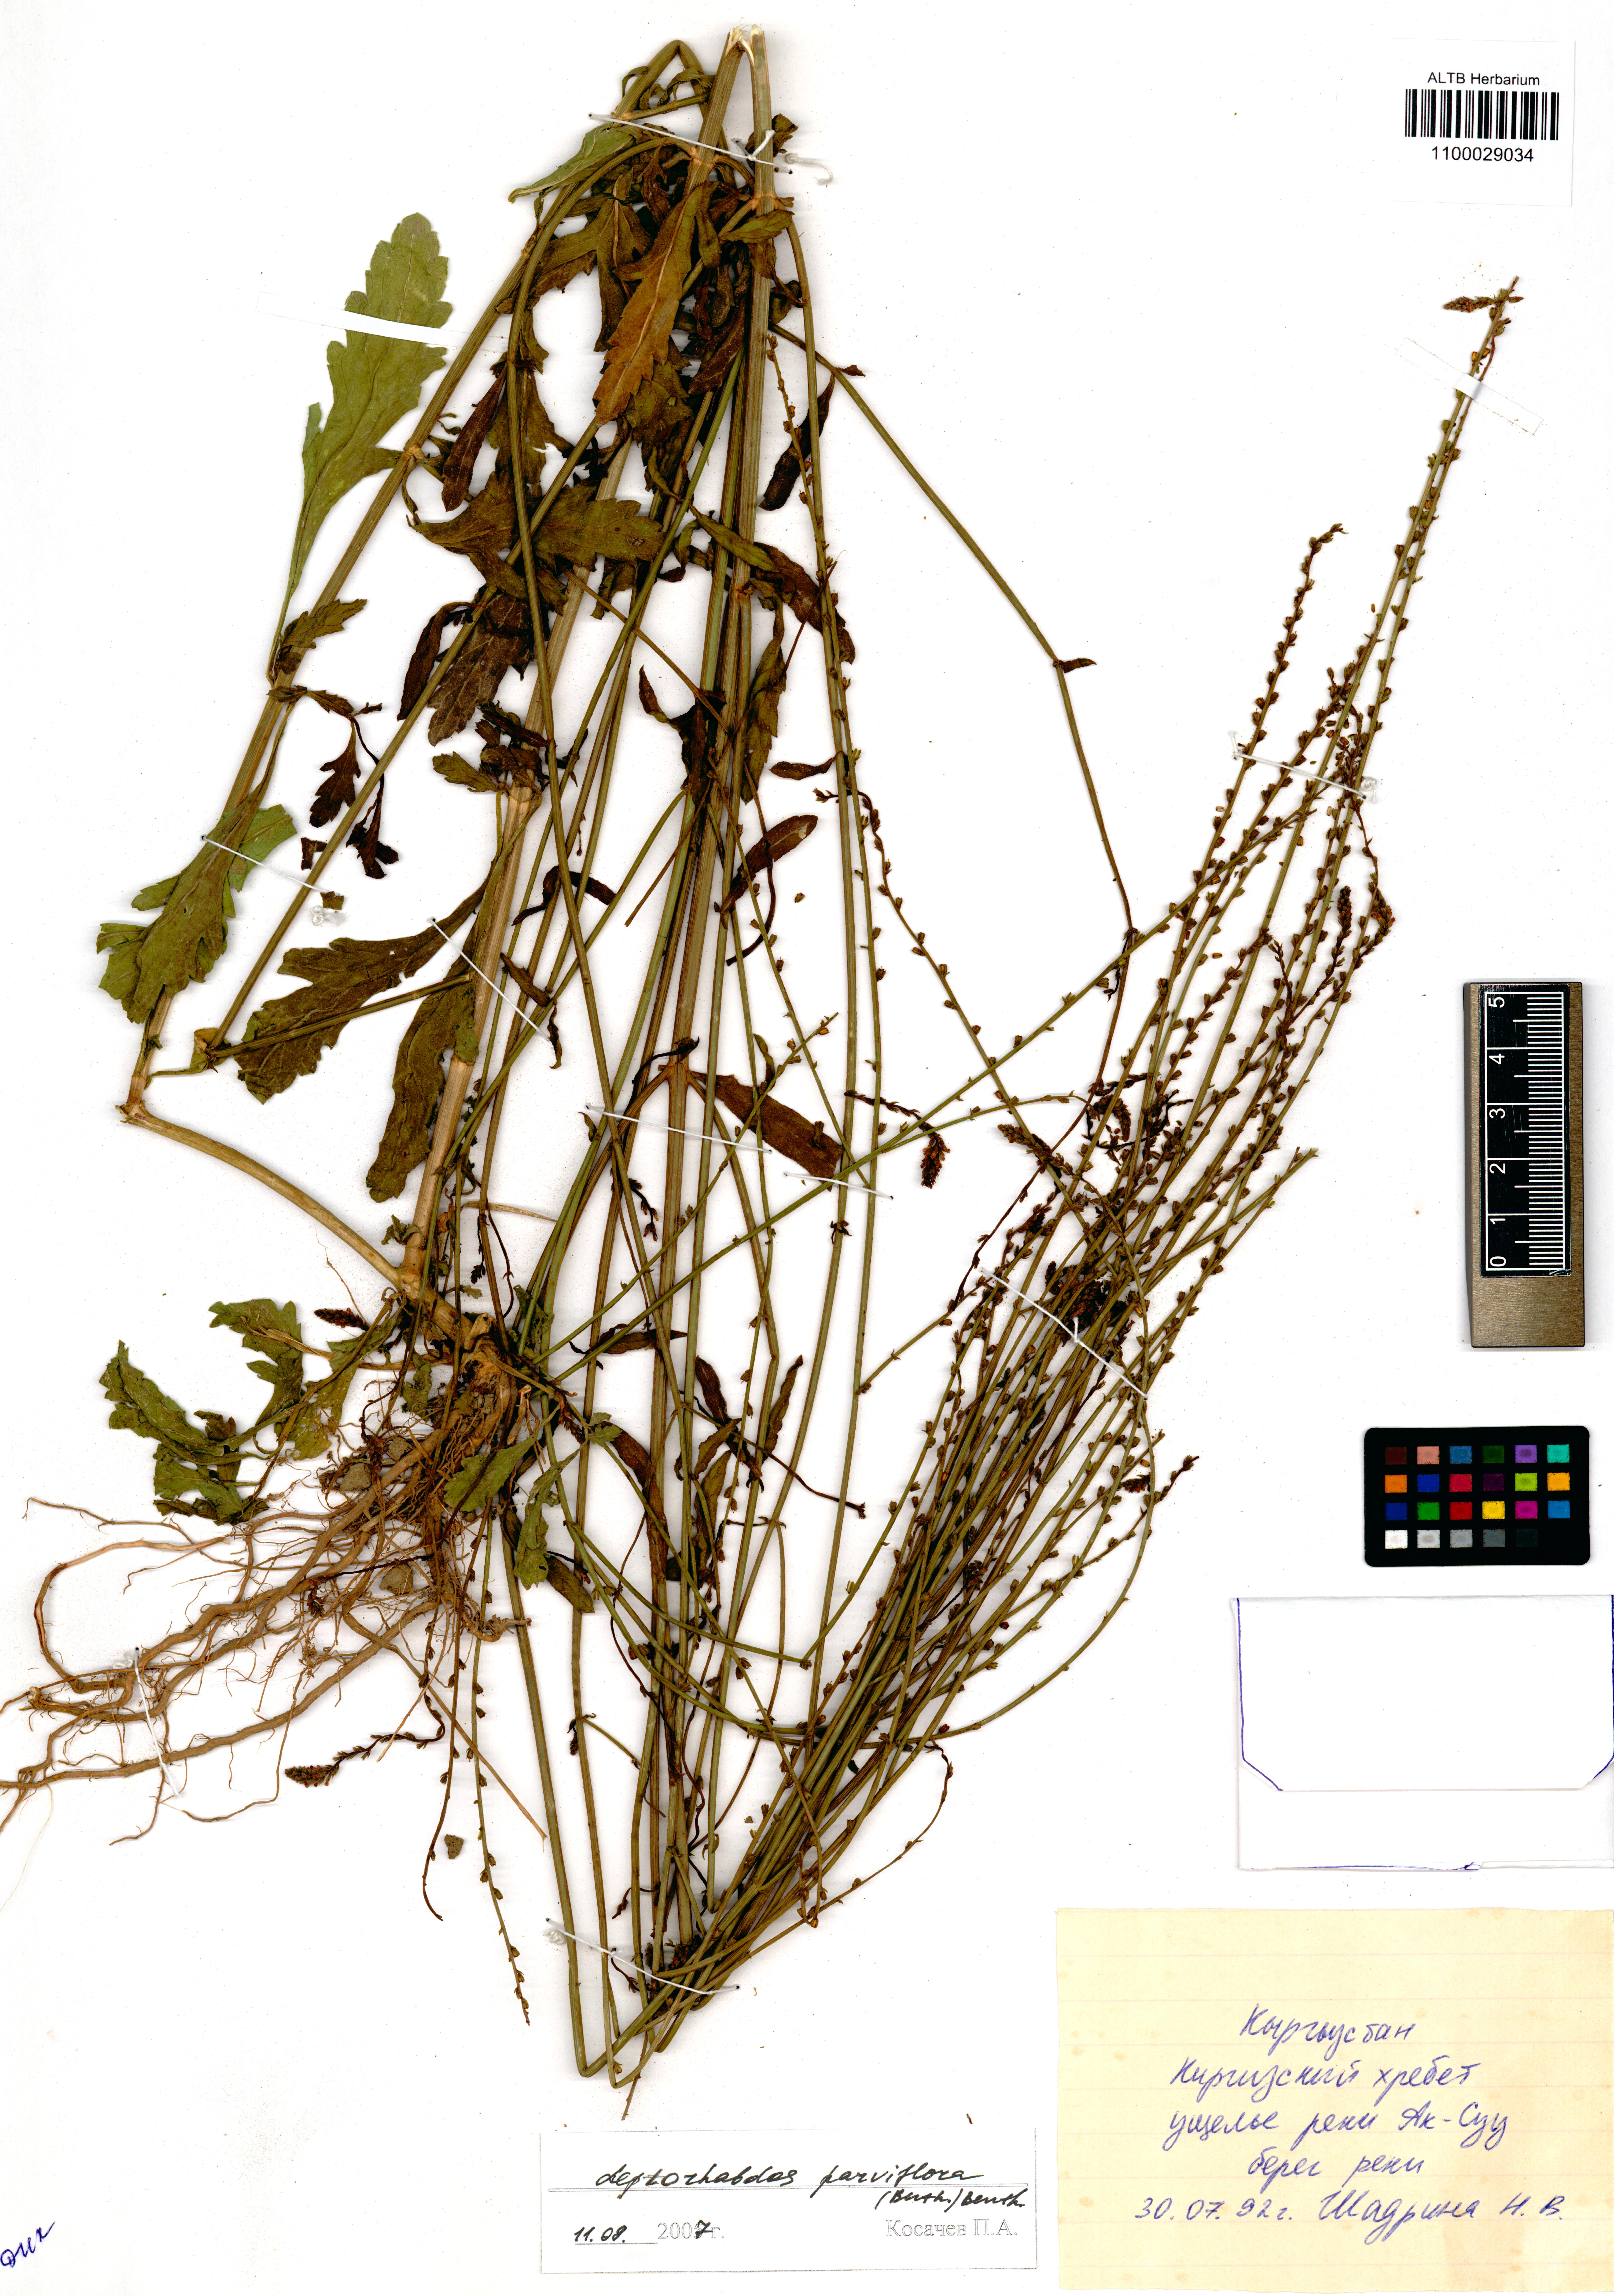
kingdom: Plantae
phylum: Tracheophyta
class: Magnoliopsida
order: Lamiales
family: Orobanchaceae
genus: Leptorhabdos
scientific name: Leptorhabdos parviflora
